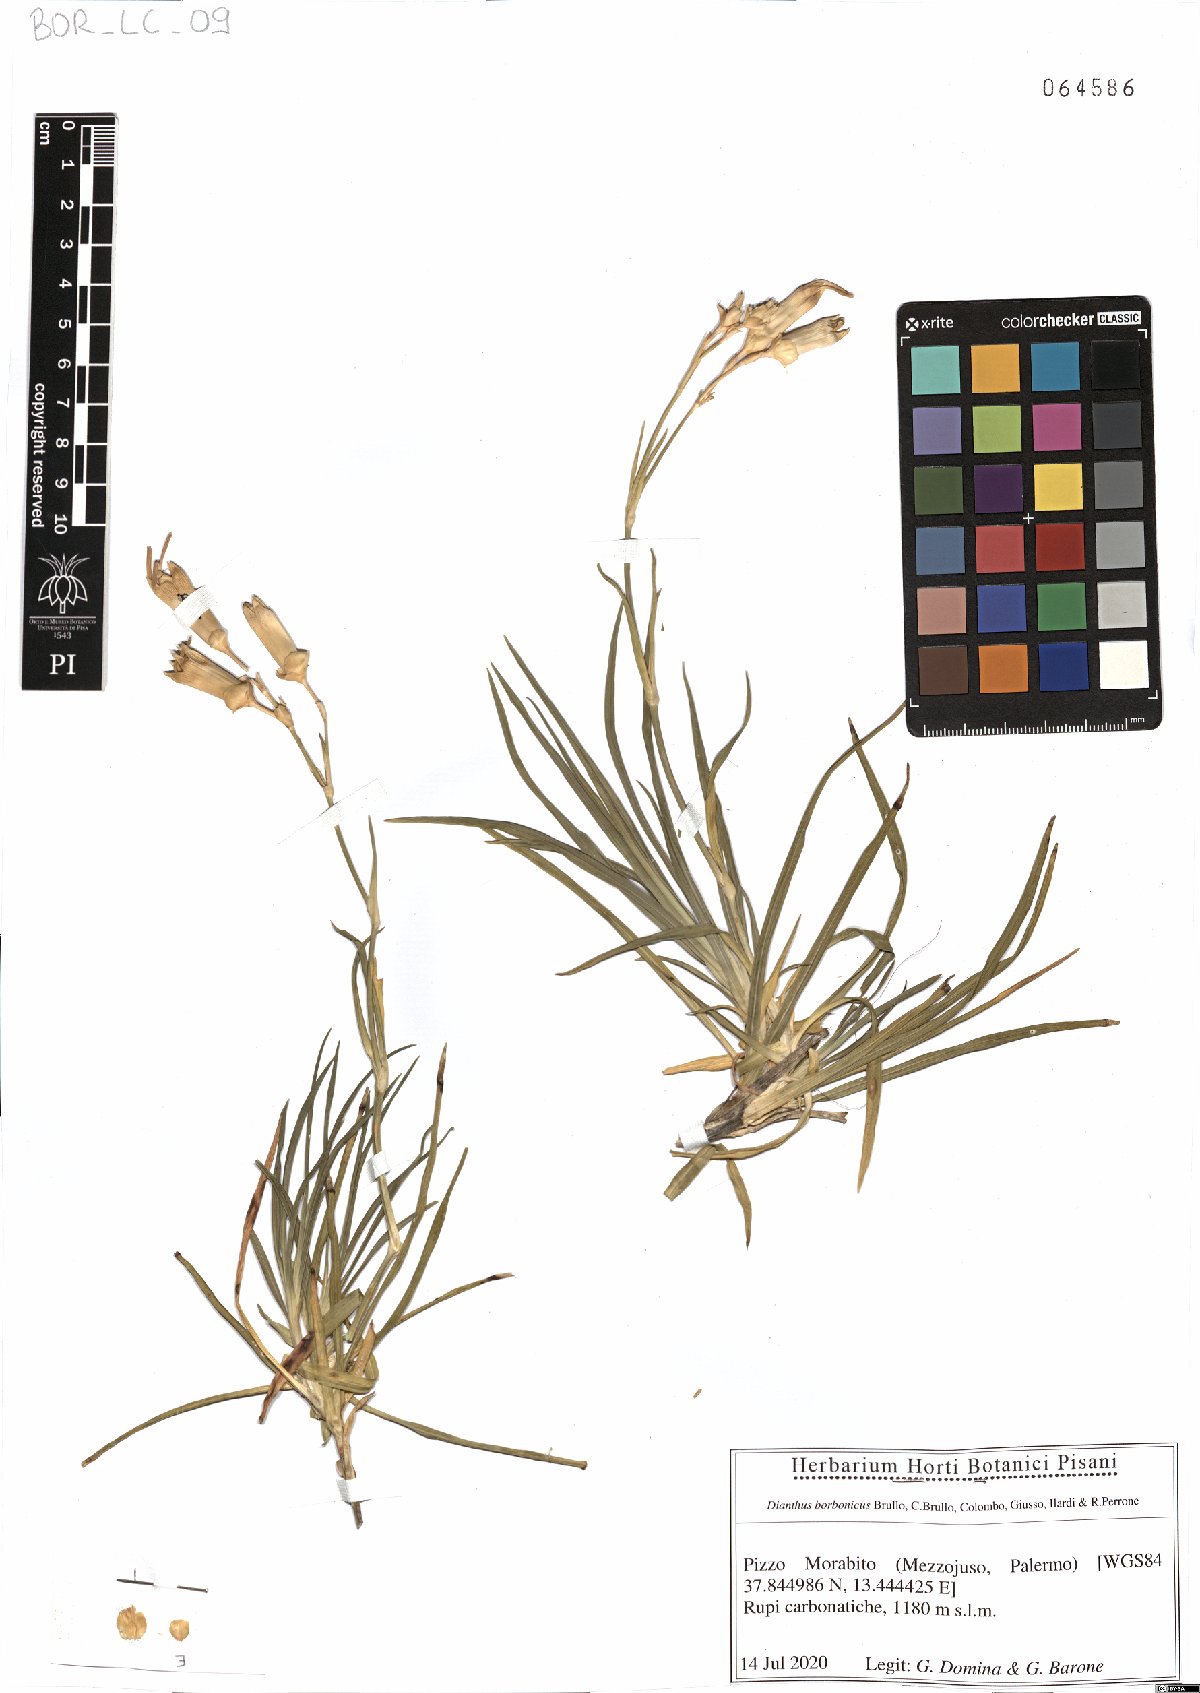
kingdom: Plantae
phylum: Tracheophyta
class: Magnoliopsida
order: Caryophyllales
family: Caryophyllaceae
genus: Dianthus
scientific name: Dianthus borbonicus
